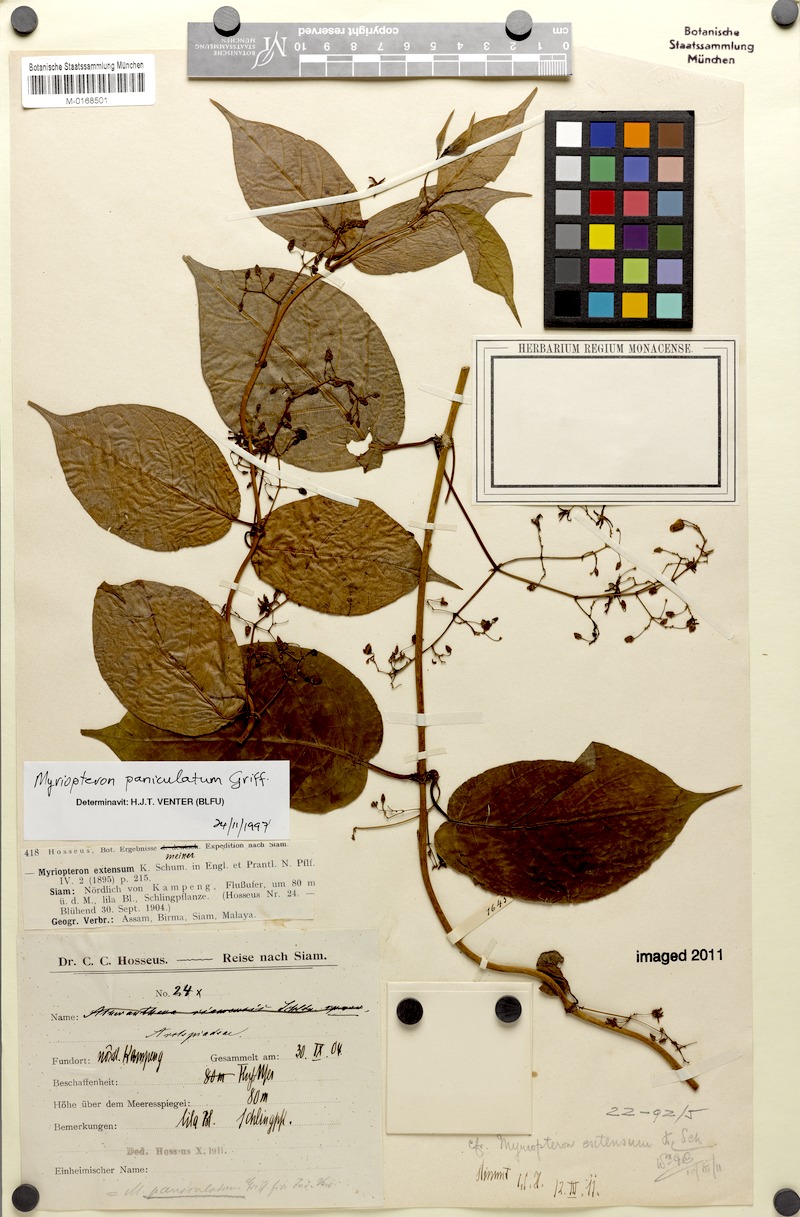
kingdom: Plantae
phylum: Tracheophyta
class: Magnoliopsida
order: Gentianales
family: Apocynaceae
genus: Myriopteron
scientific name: Myriopteron extensum
